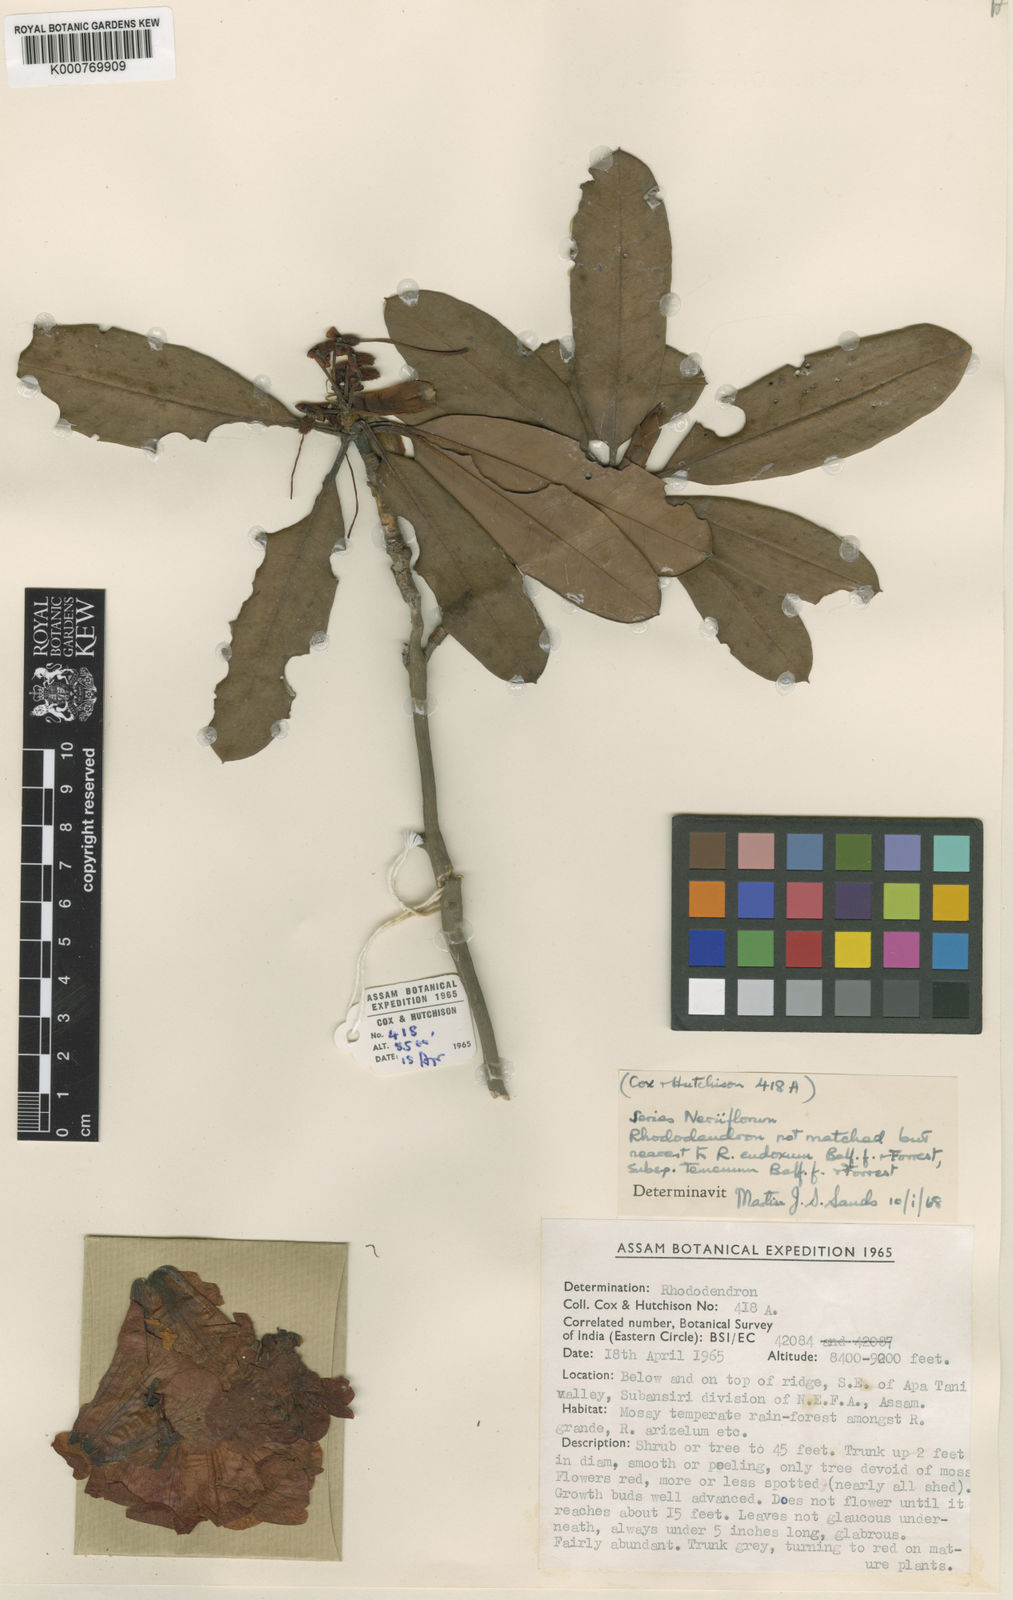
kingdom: Plantae
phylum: Tracheophyta
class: Magnoliopsida
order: Ericales
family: Ericaceae
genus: Rhododendron
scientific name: Rhododendron eudoxum
